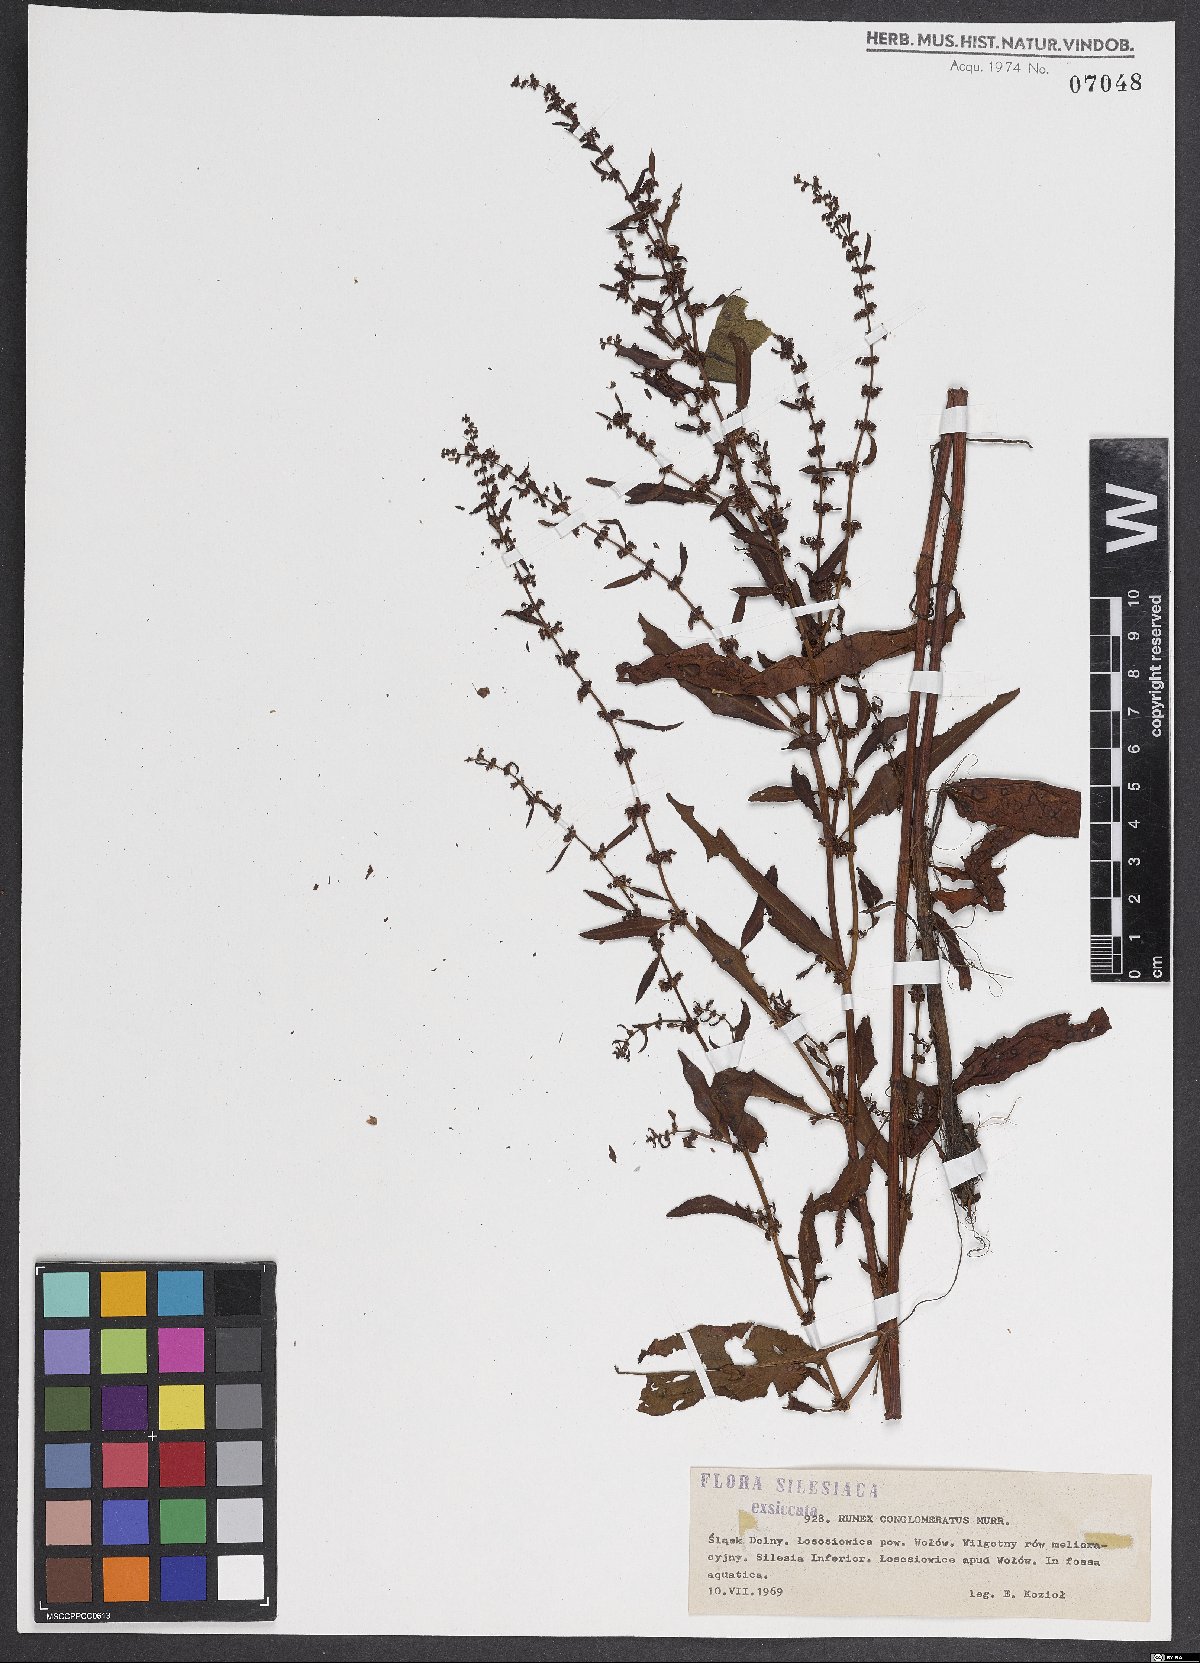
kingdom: Plantae
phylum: Tracheophyta
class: Magnoliopsida
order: Caryophyllales
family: Polygonaceae
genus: Rumex
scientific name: Rumex conglomeratus
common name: Clustered dock
